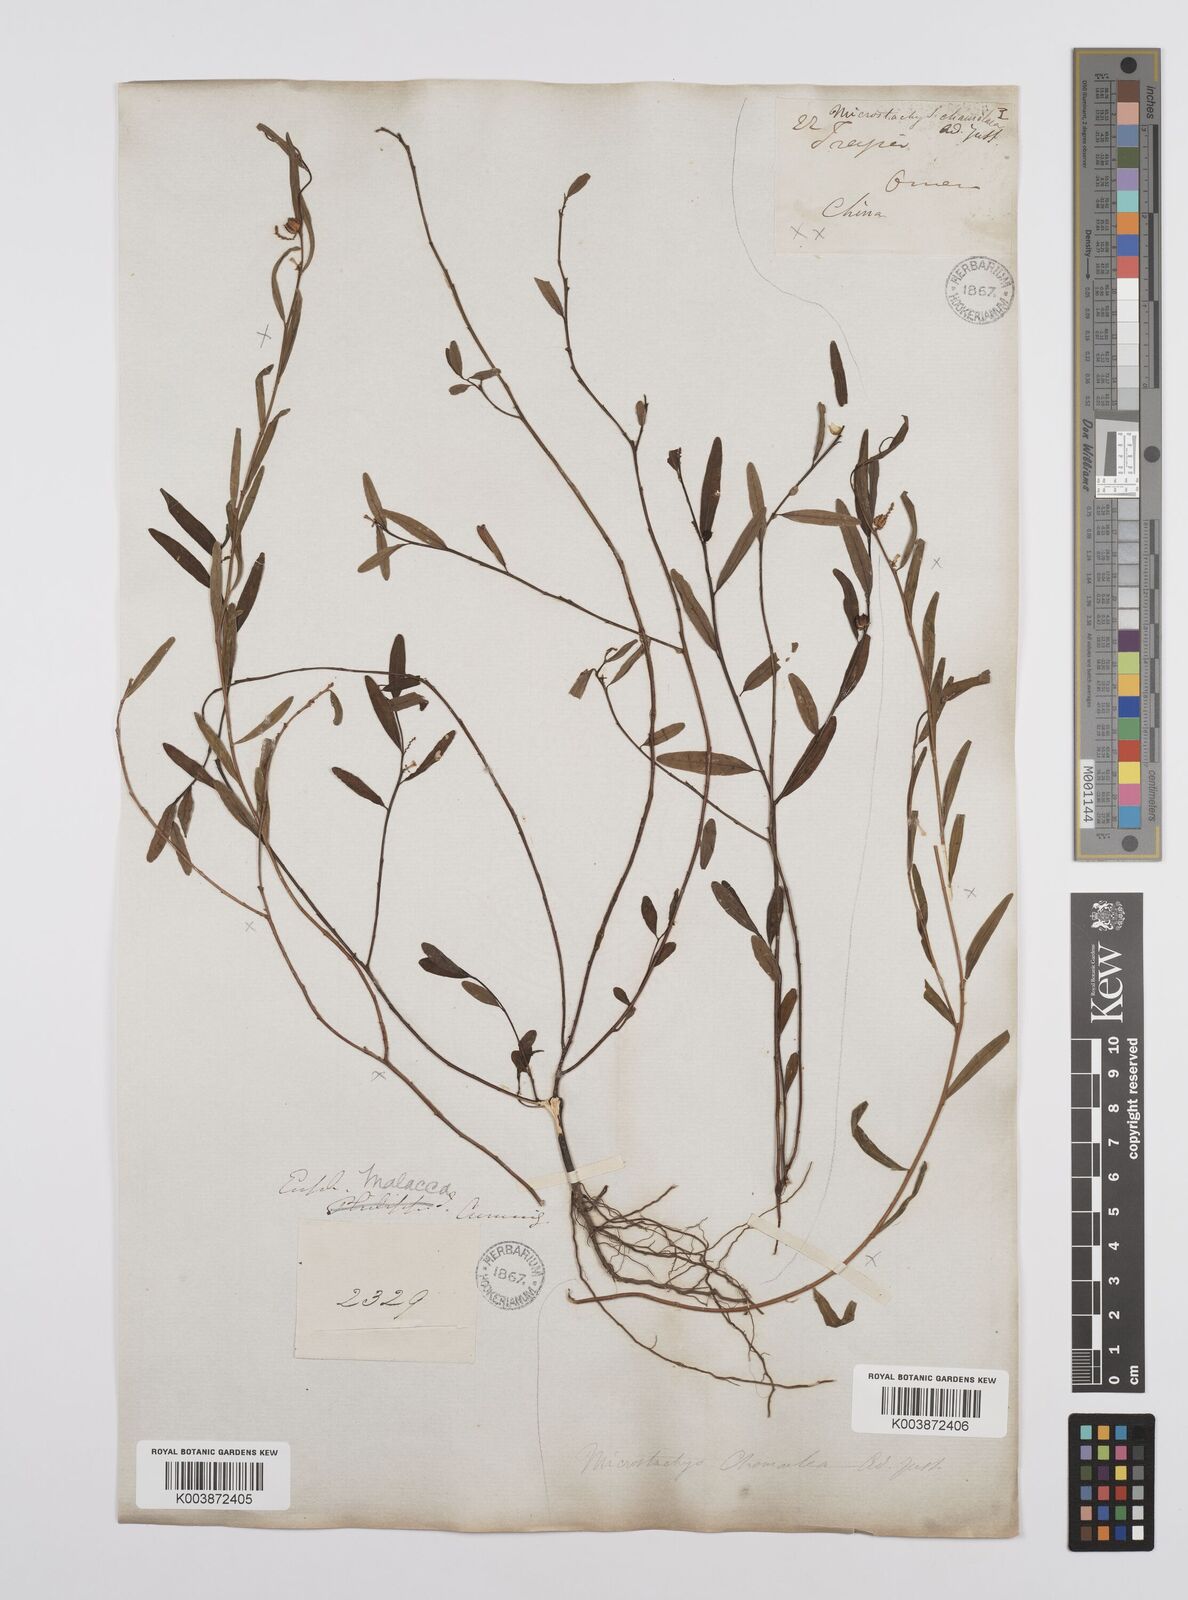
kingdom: Plantae
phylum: Tracheophyta
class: Magnoliopsida
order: Malpighiales
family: Euphorbiaceae
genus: Microstachys
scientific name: Microstachys chamaelea
